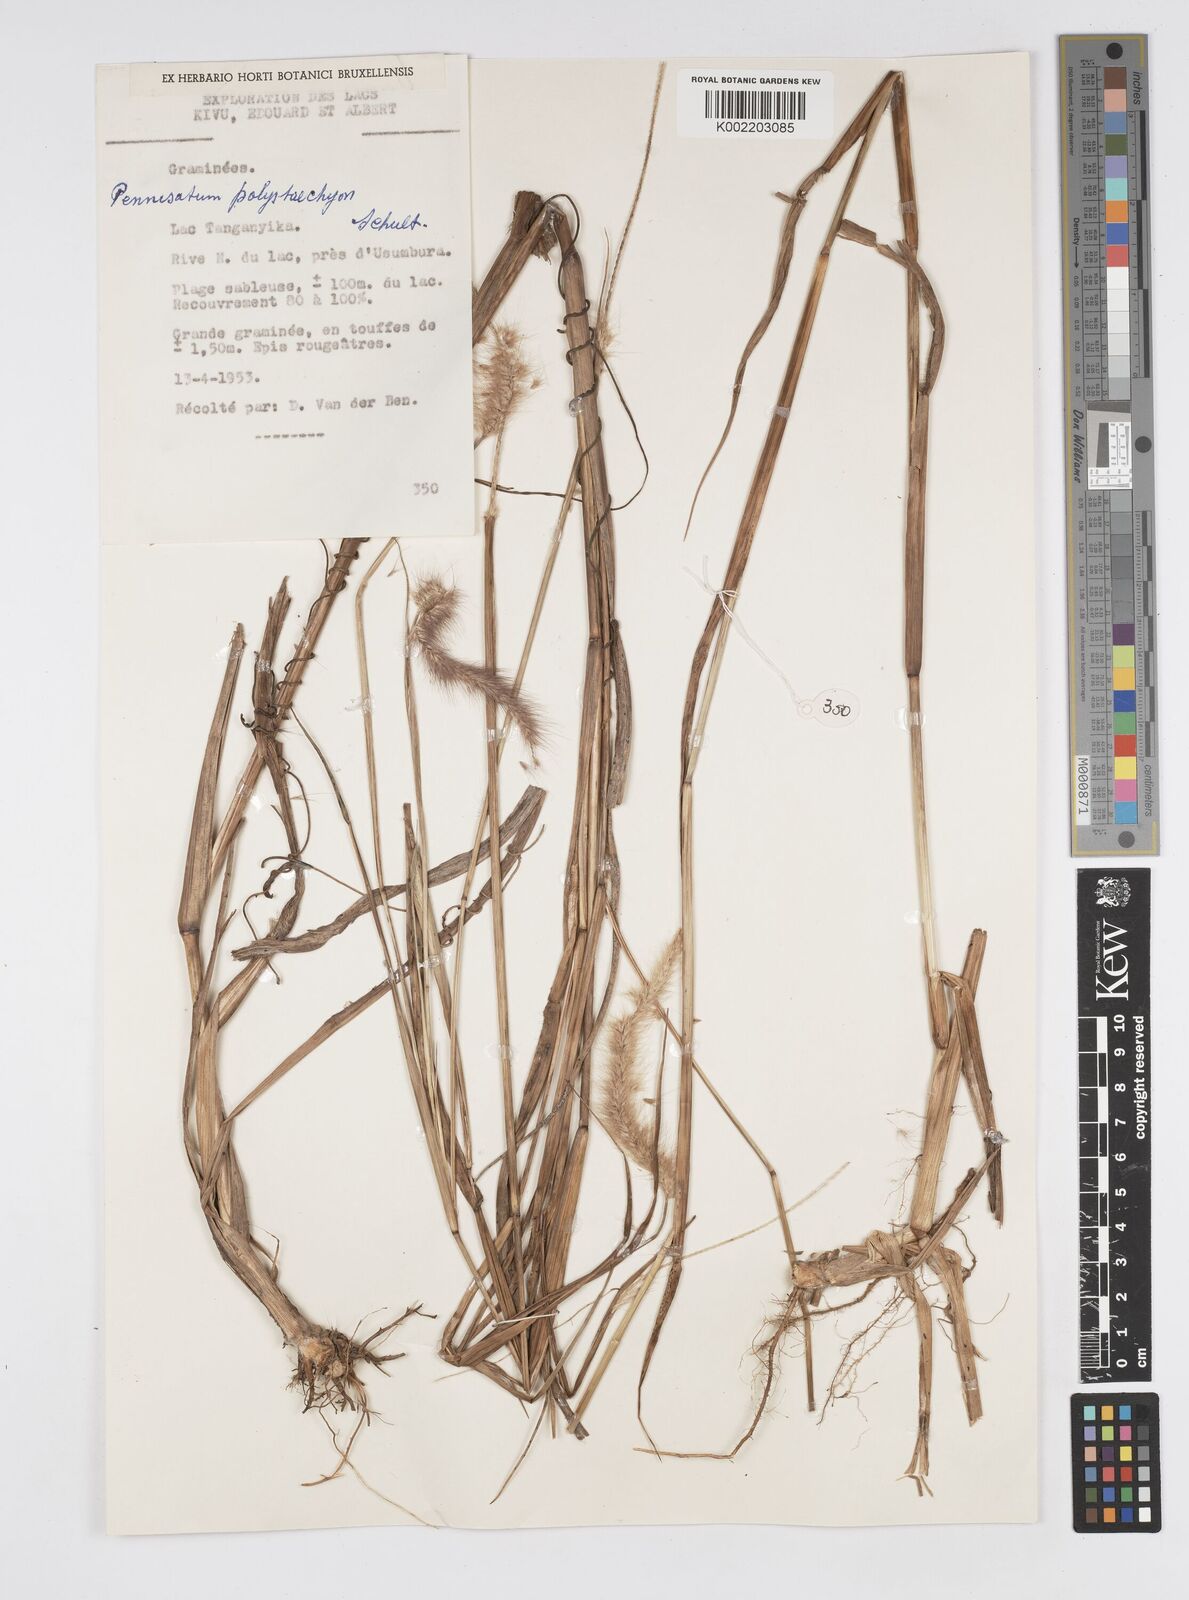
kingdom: Plantae
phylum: Tracheophyta
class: Liliopsida
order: Poales
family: Poaceae
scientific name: Poaceae
